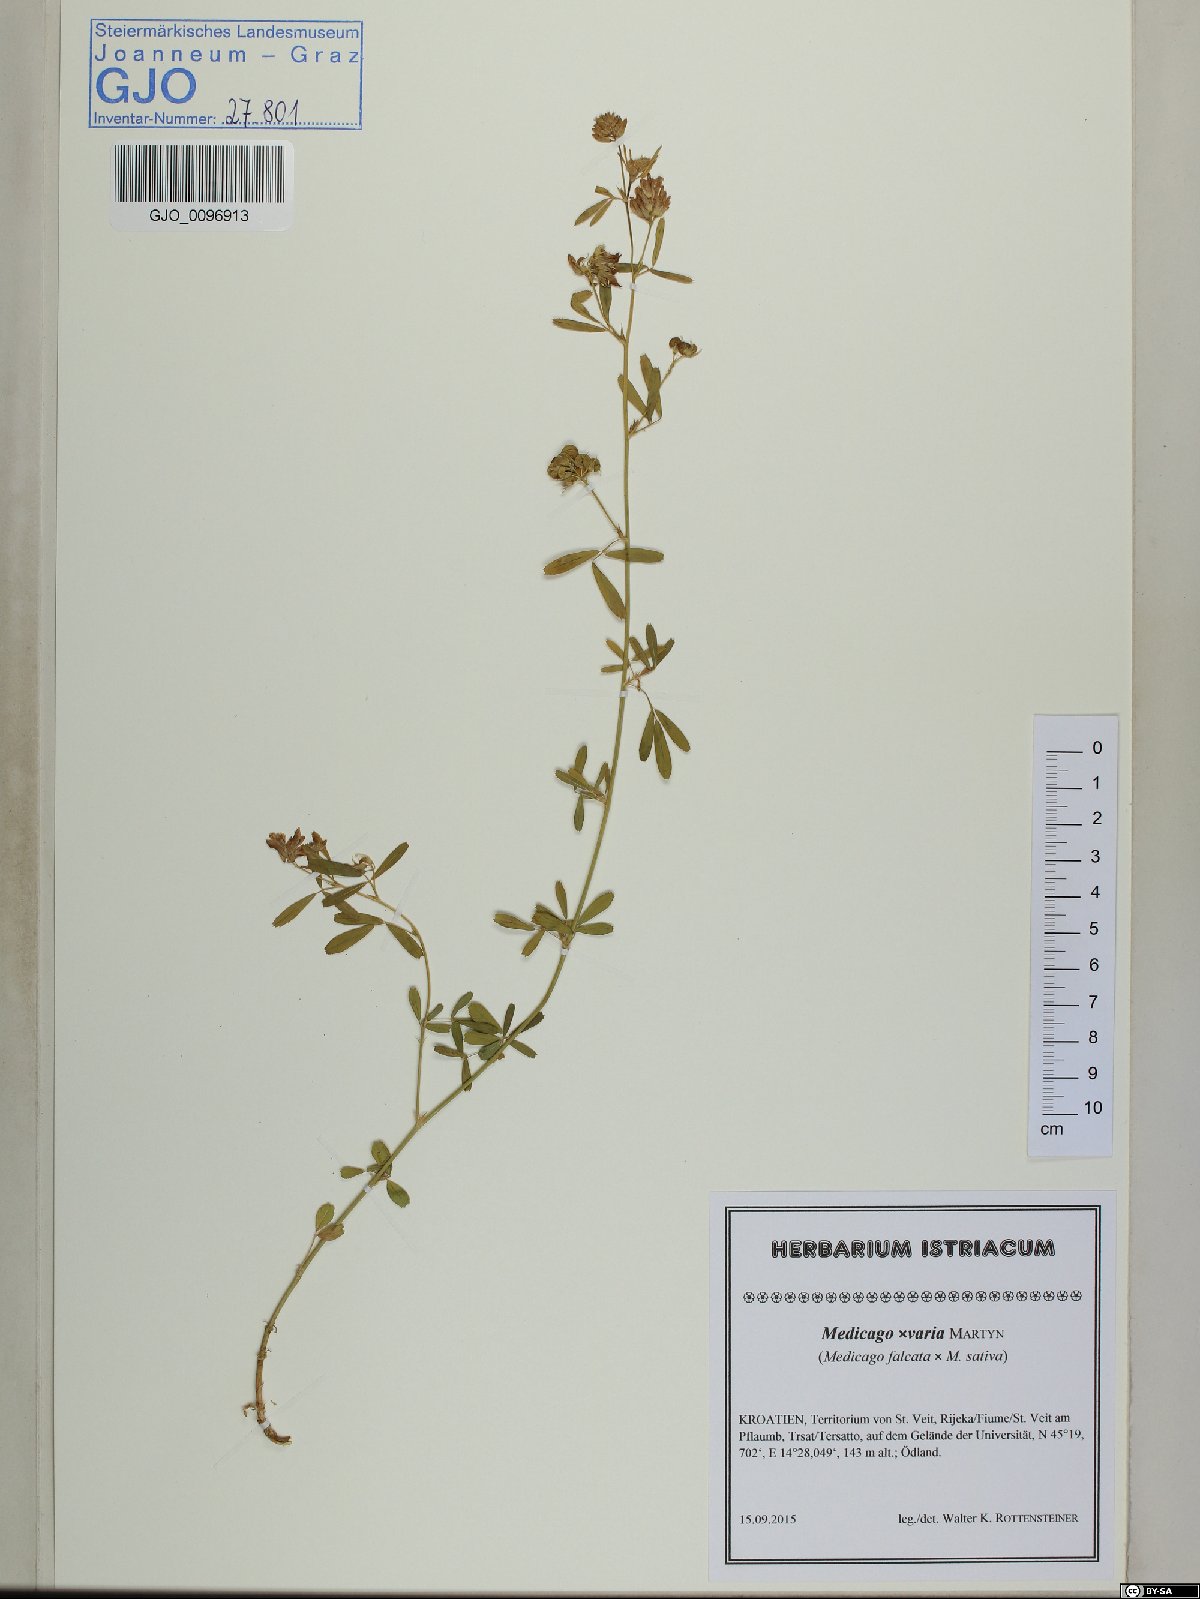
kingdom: Plantae
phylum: Tracheophyta
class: Magnoliopsida
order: Fabales
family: Fabaceae
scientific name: Fabaceae
